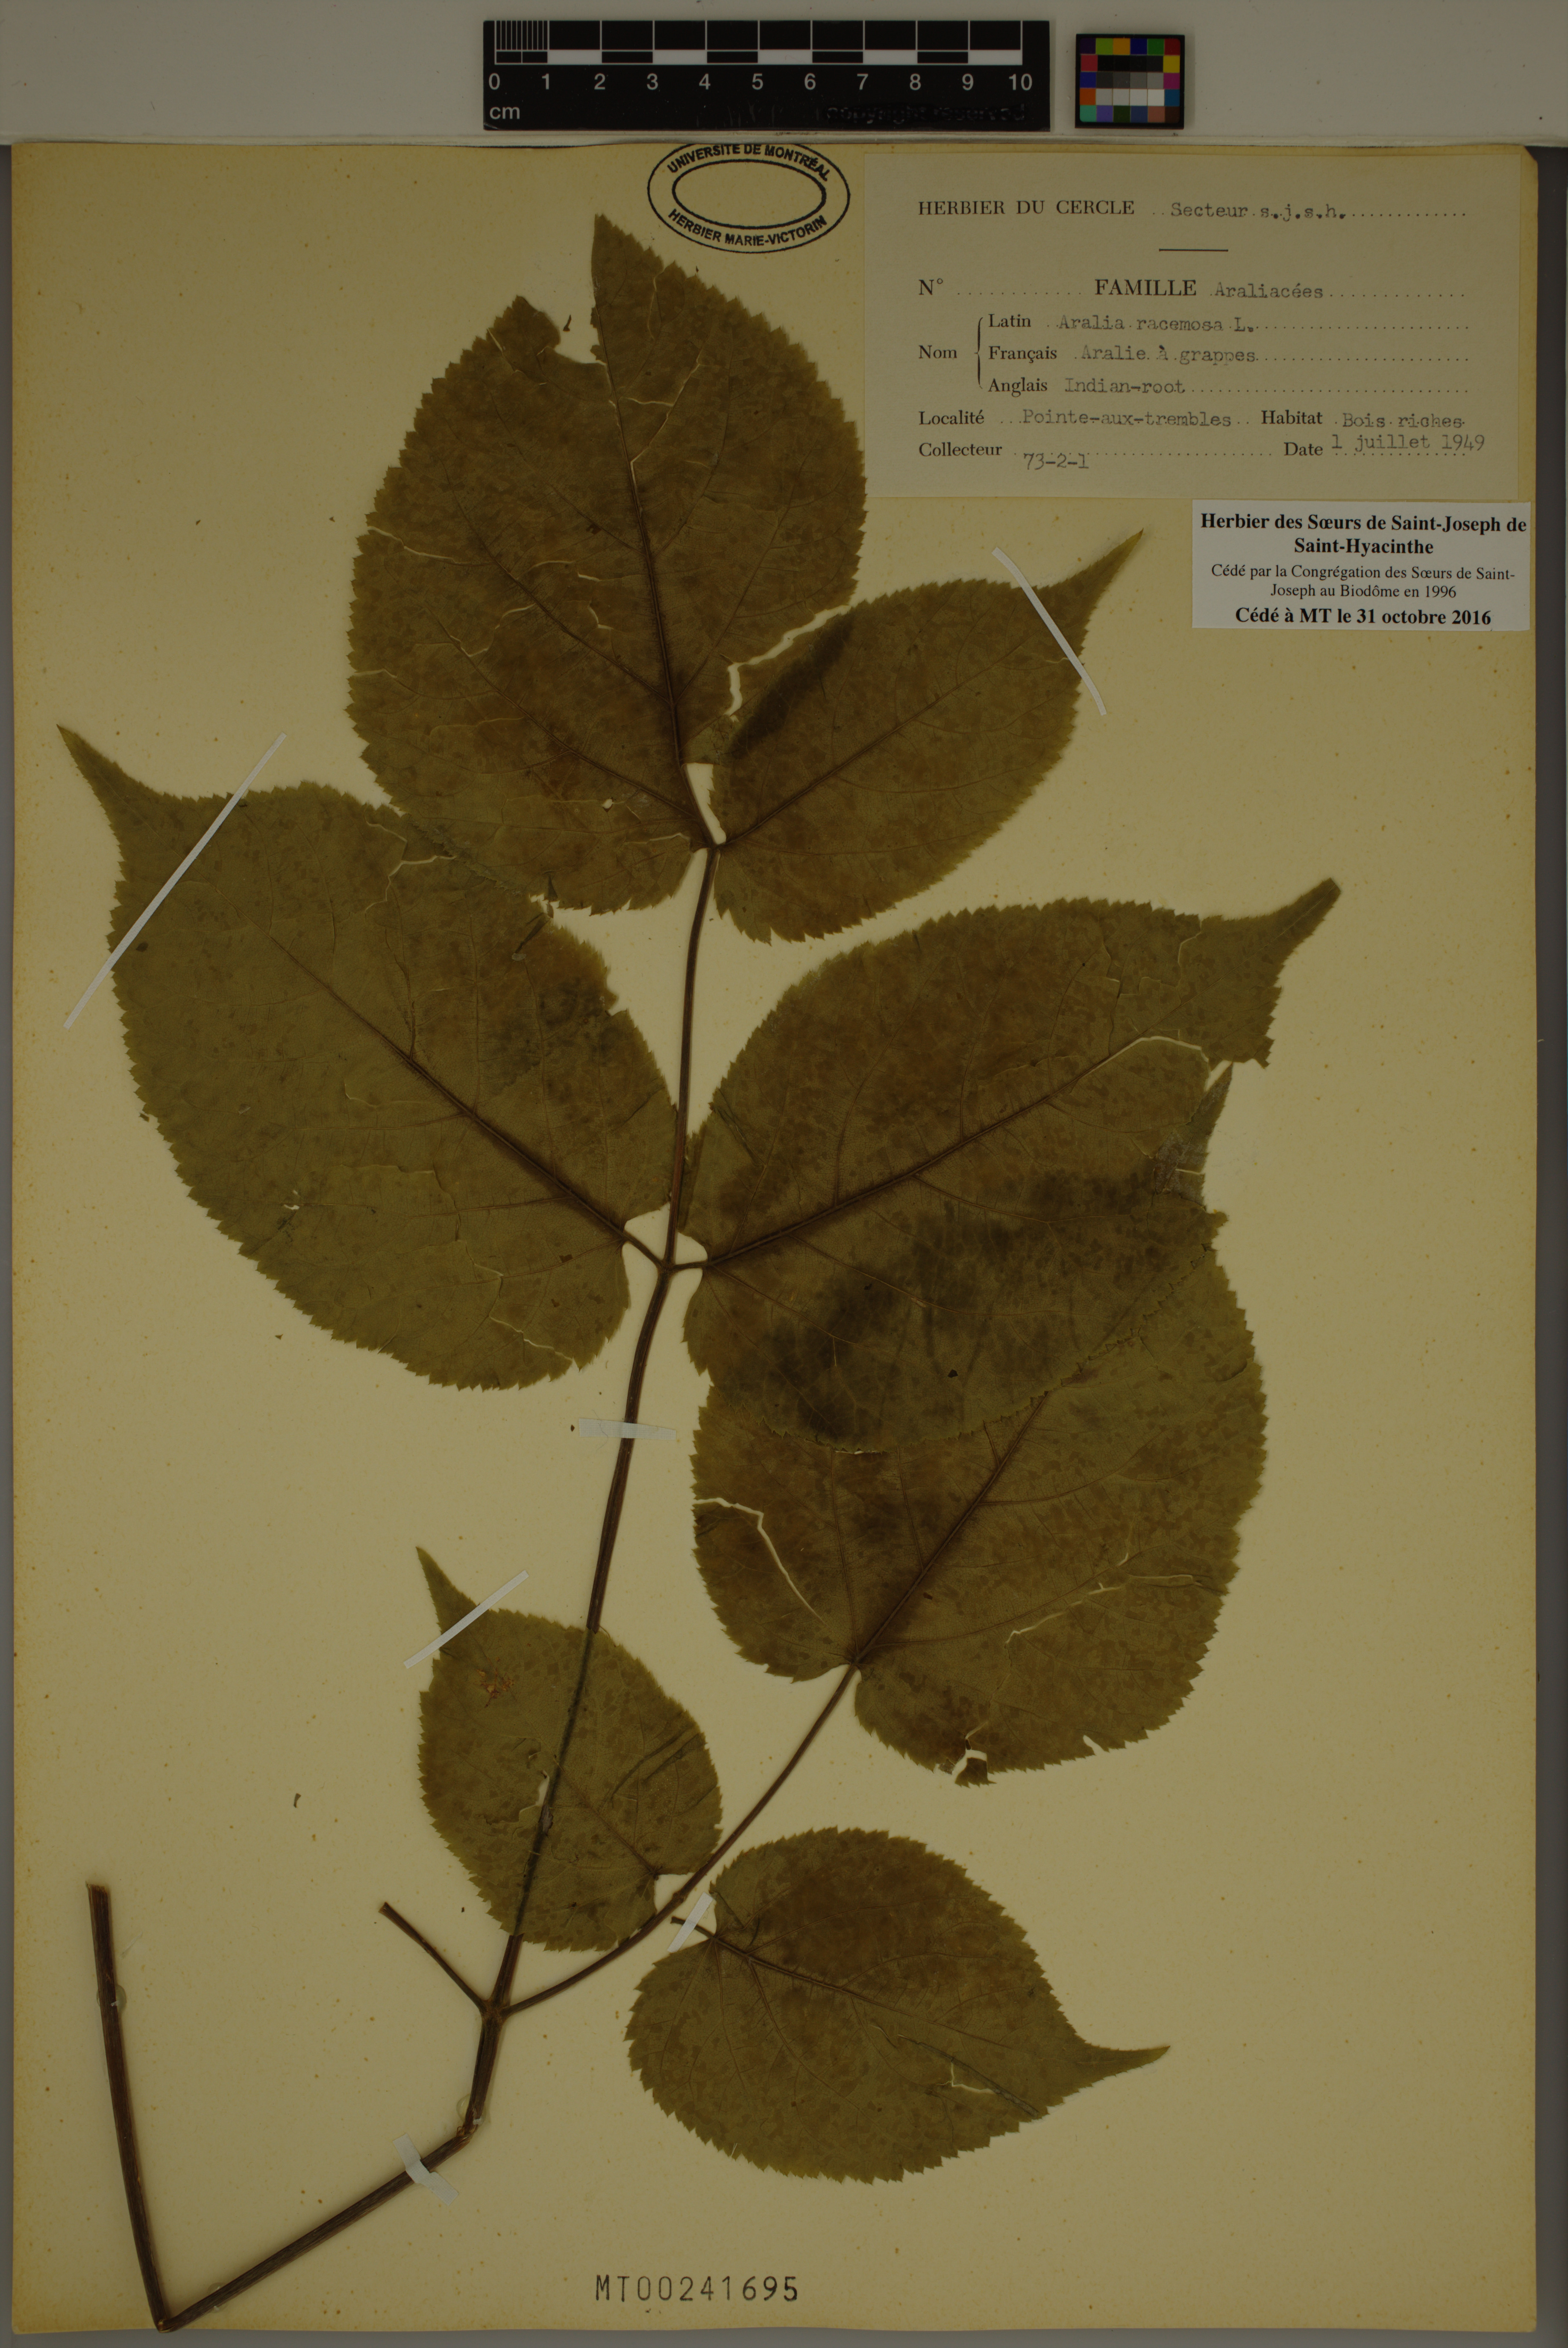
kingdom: Plantae
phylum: Tracheophyta
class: Magnoliopsida
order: Apiales
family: Araliaceae
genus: Aralia
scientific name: Aralia racemosa
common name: American-spikenard
